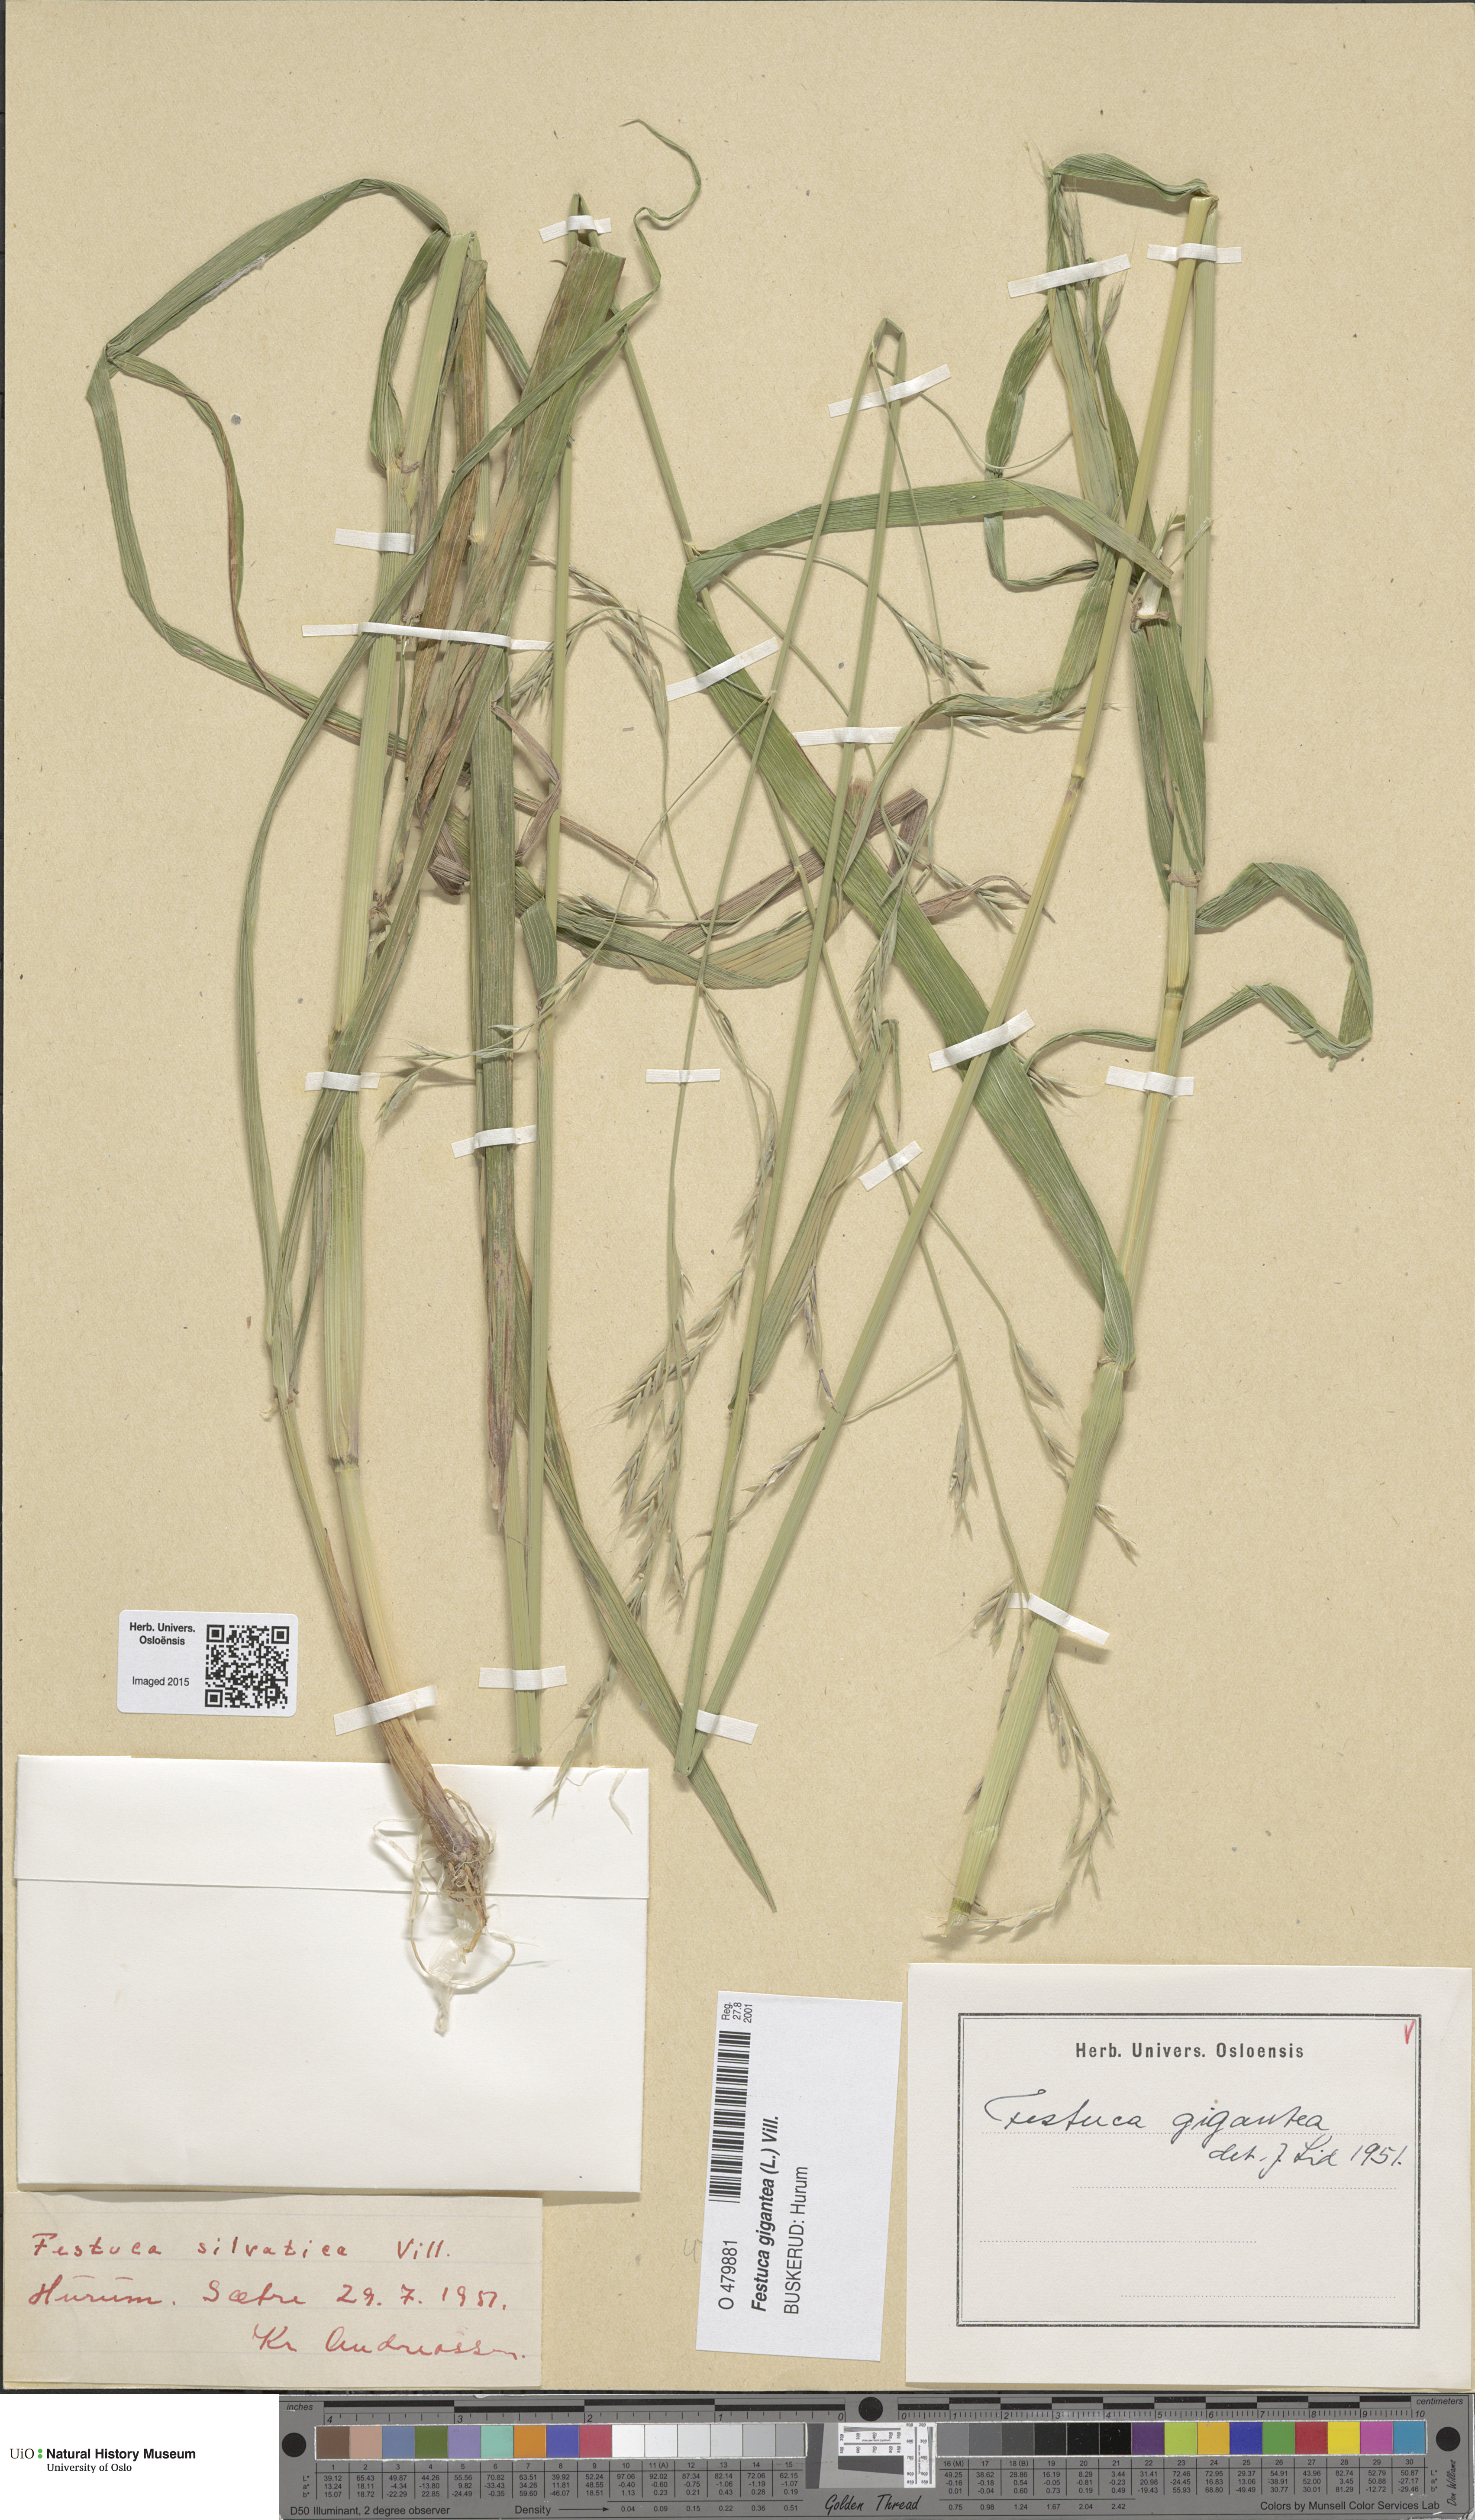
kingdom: Plantae
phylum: Tracheophyta
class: Liliopsida
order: Poales
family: Poaceae
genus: Lolium
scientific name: Lolium giganteum
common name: Giant fescue
